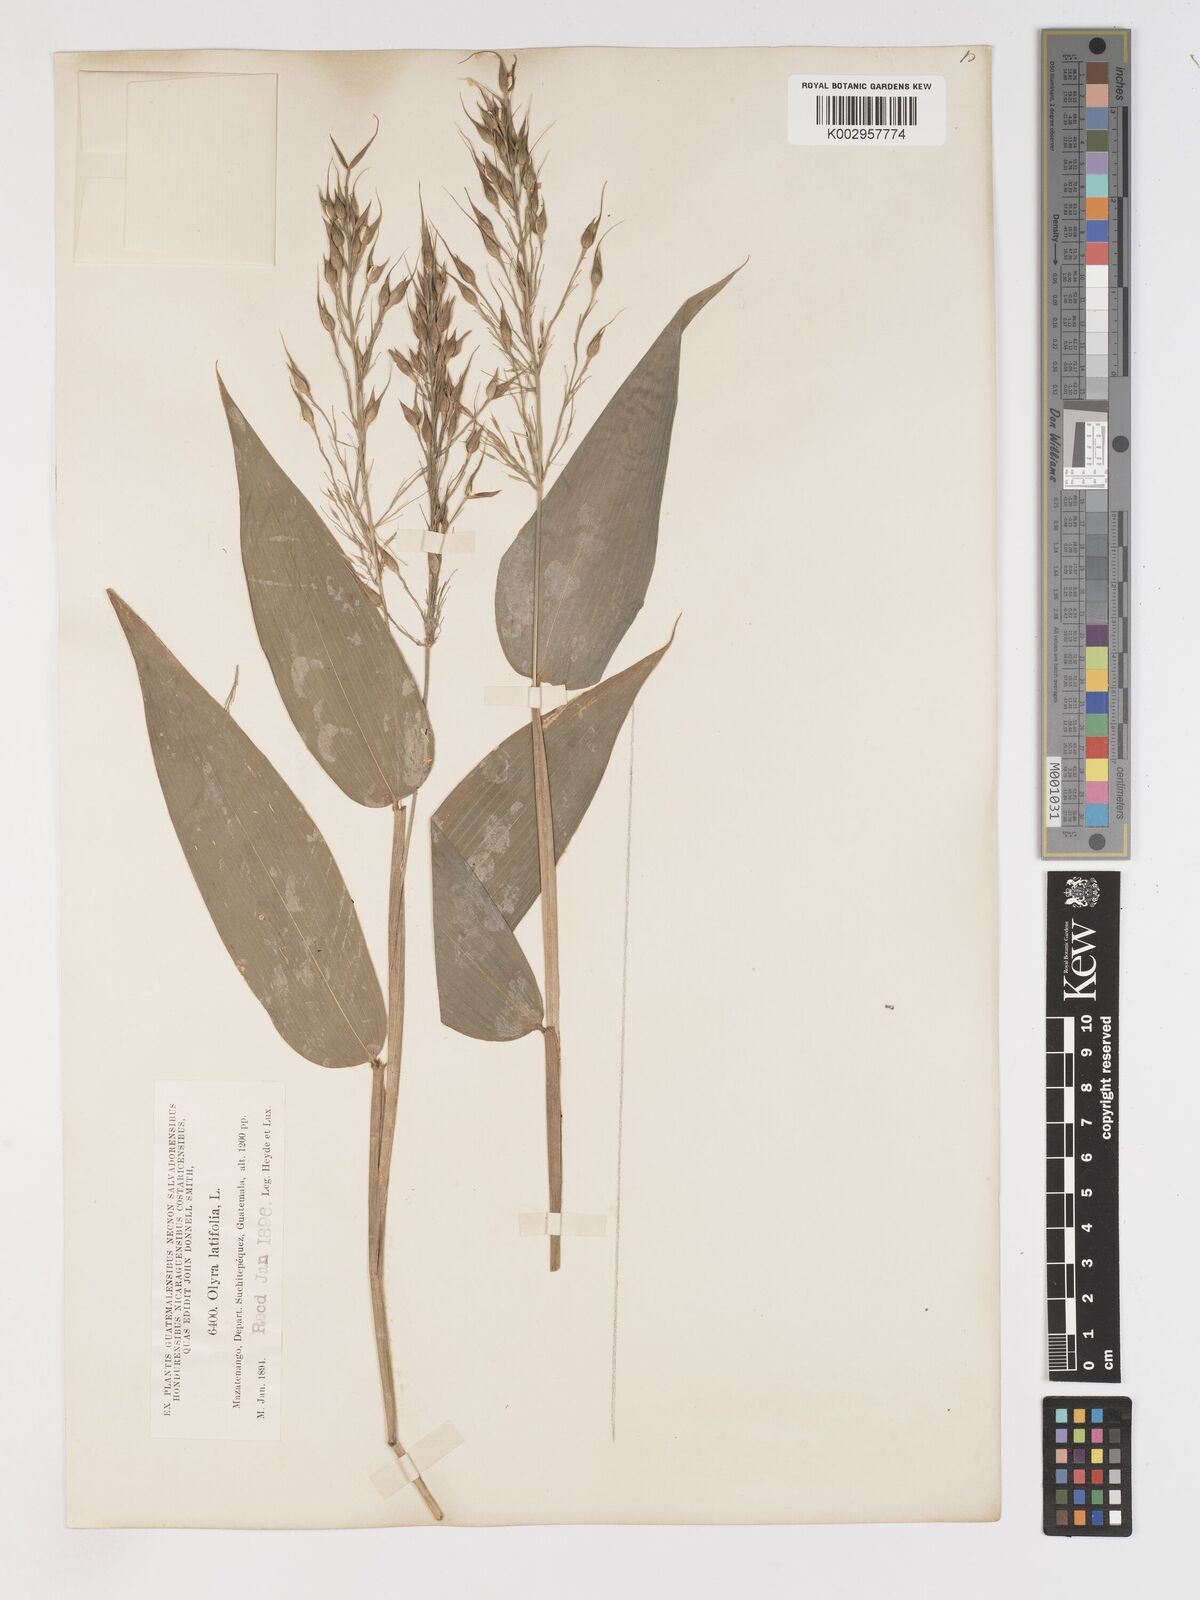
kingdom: Plantae
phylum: Tracheophyta
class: Liliopsida
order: Poales
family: Poaceae
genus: Olyra
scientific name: Olyra latifolia
